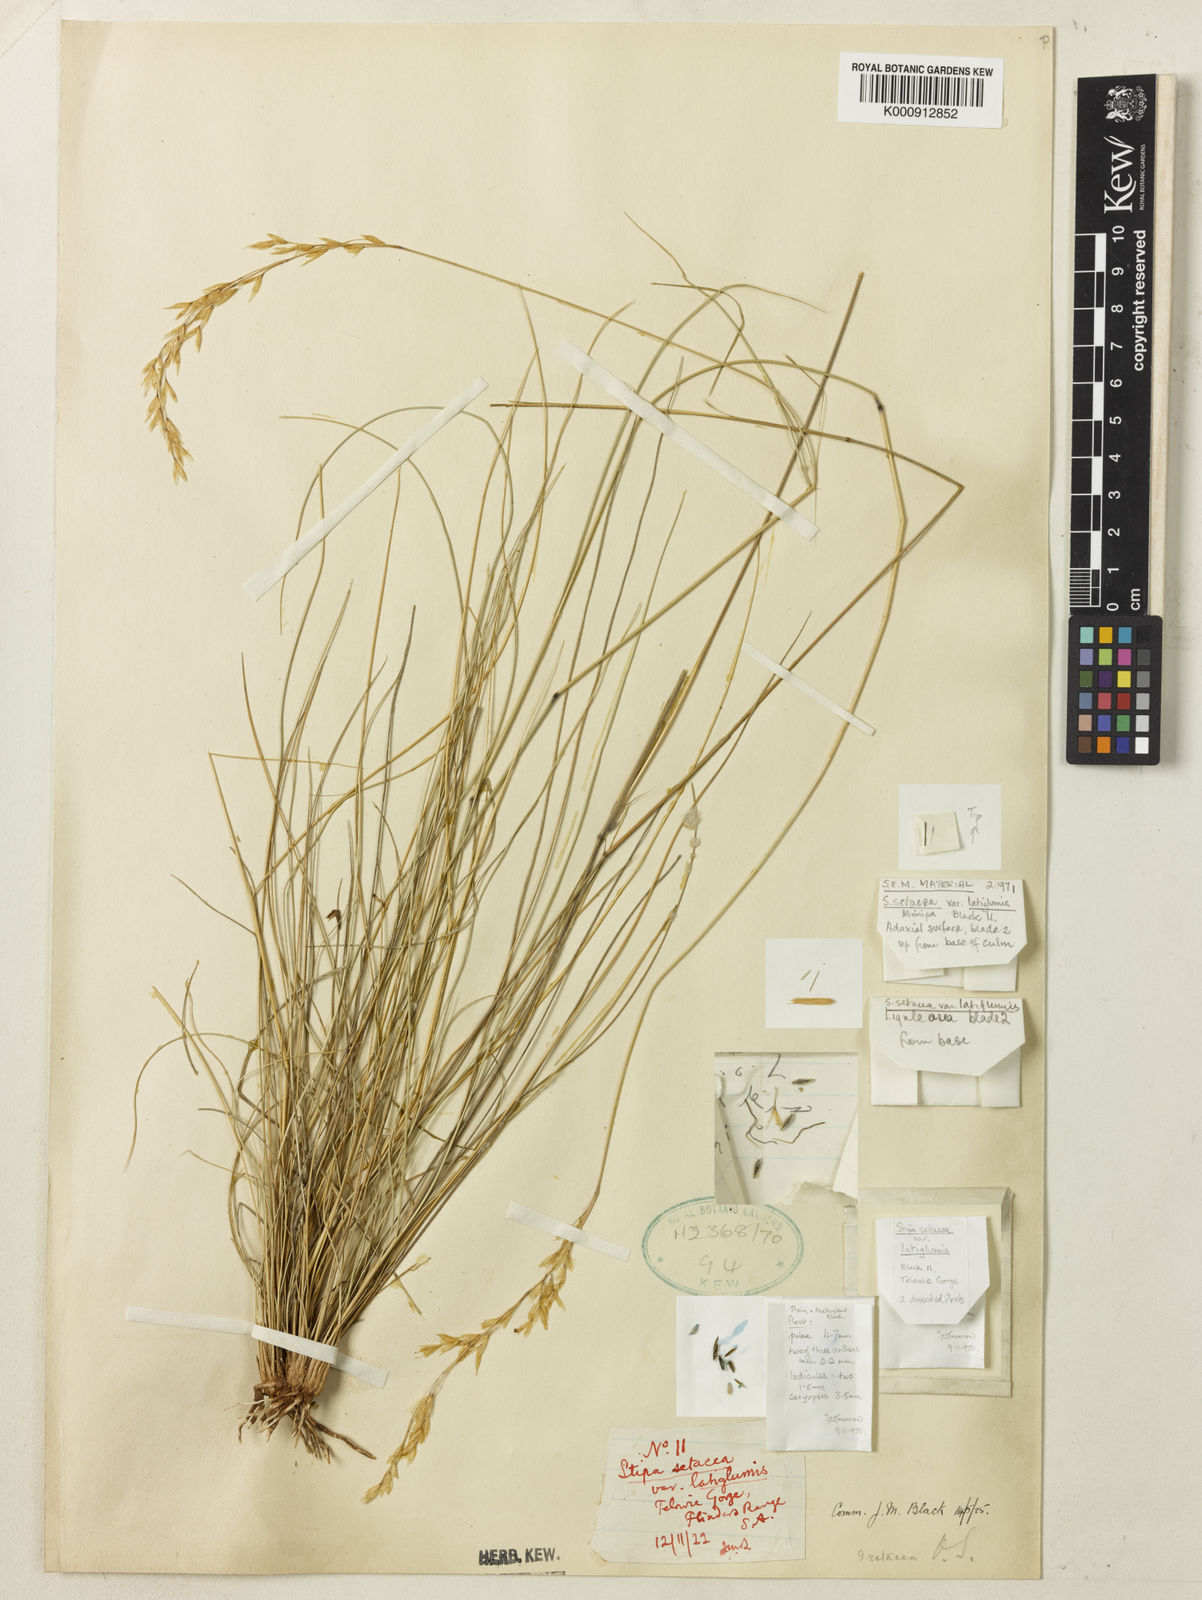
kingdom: Plantae
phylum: Tracheophyta
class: Liliopsida
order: Poales
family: Poaceae
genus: Piptochaetium
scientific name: Piptochaetium
